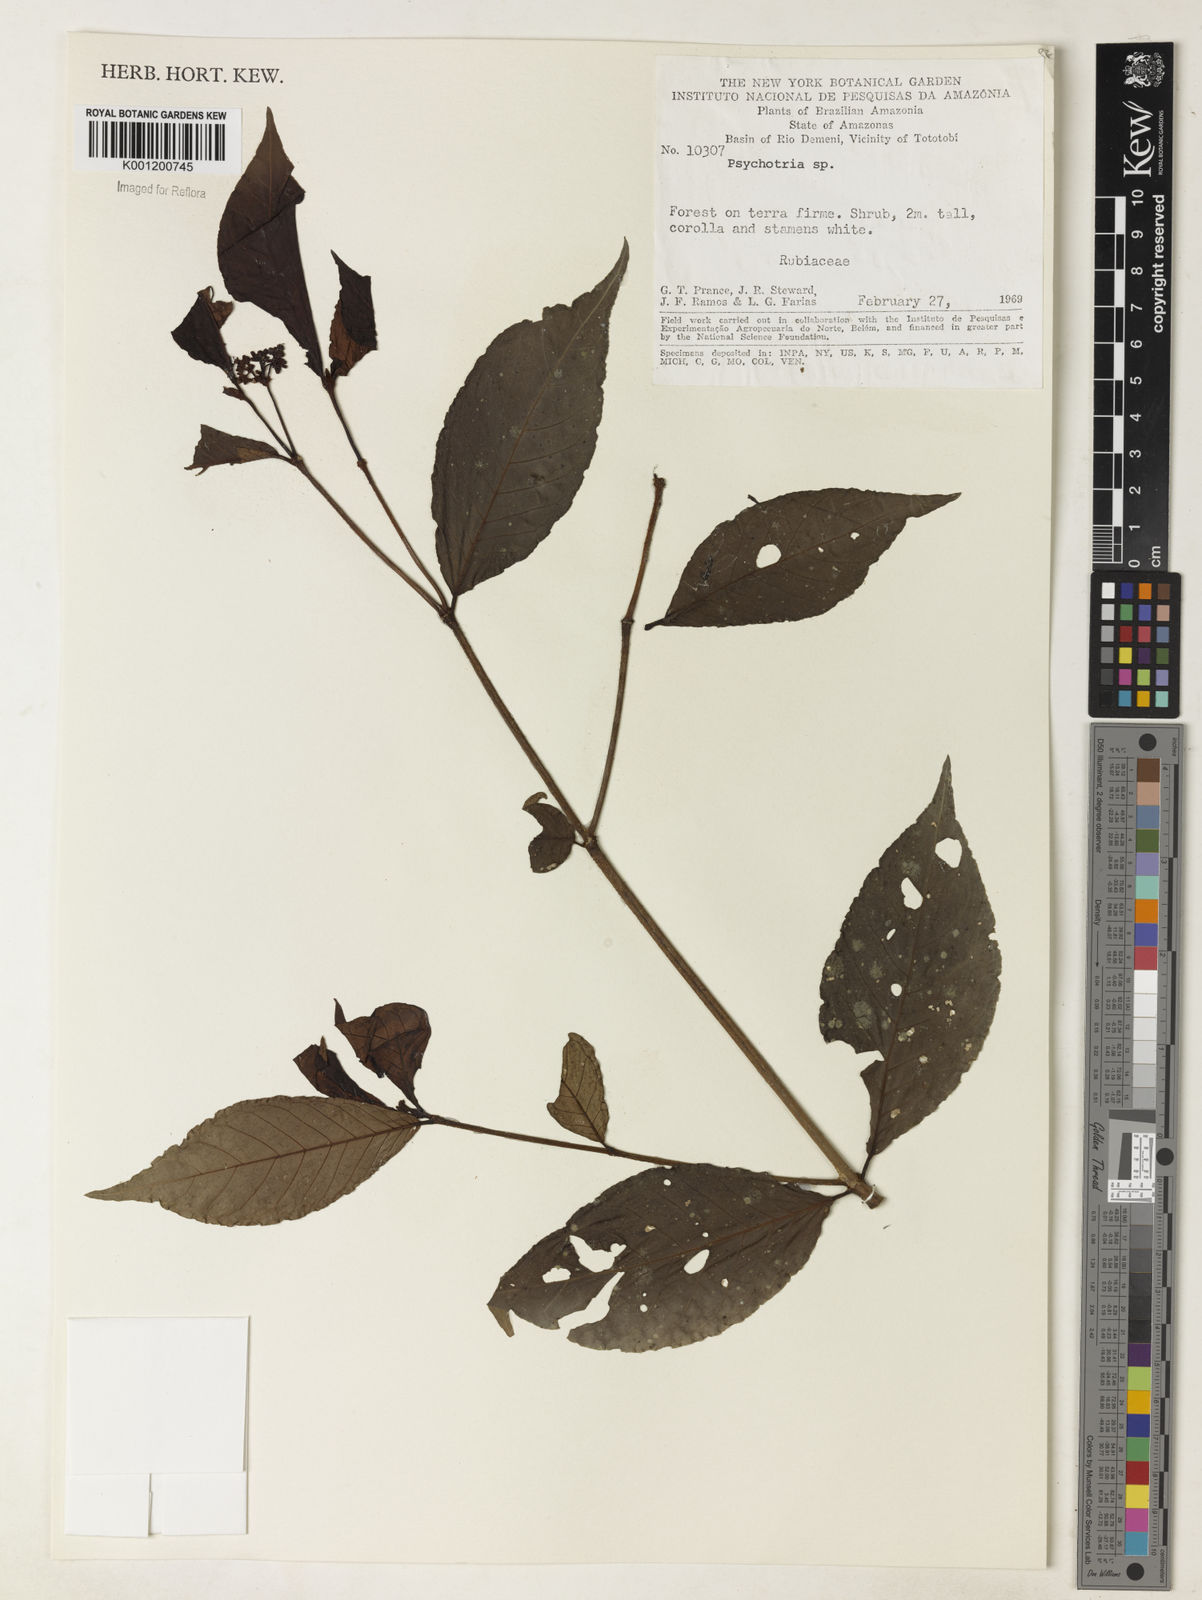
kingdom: Plantae
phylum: Tracheophyta
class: Magnoliopsida
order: Gentianales
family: Rubiaceae
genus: Psychotria
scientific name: Psychotria
